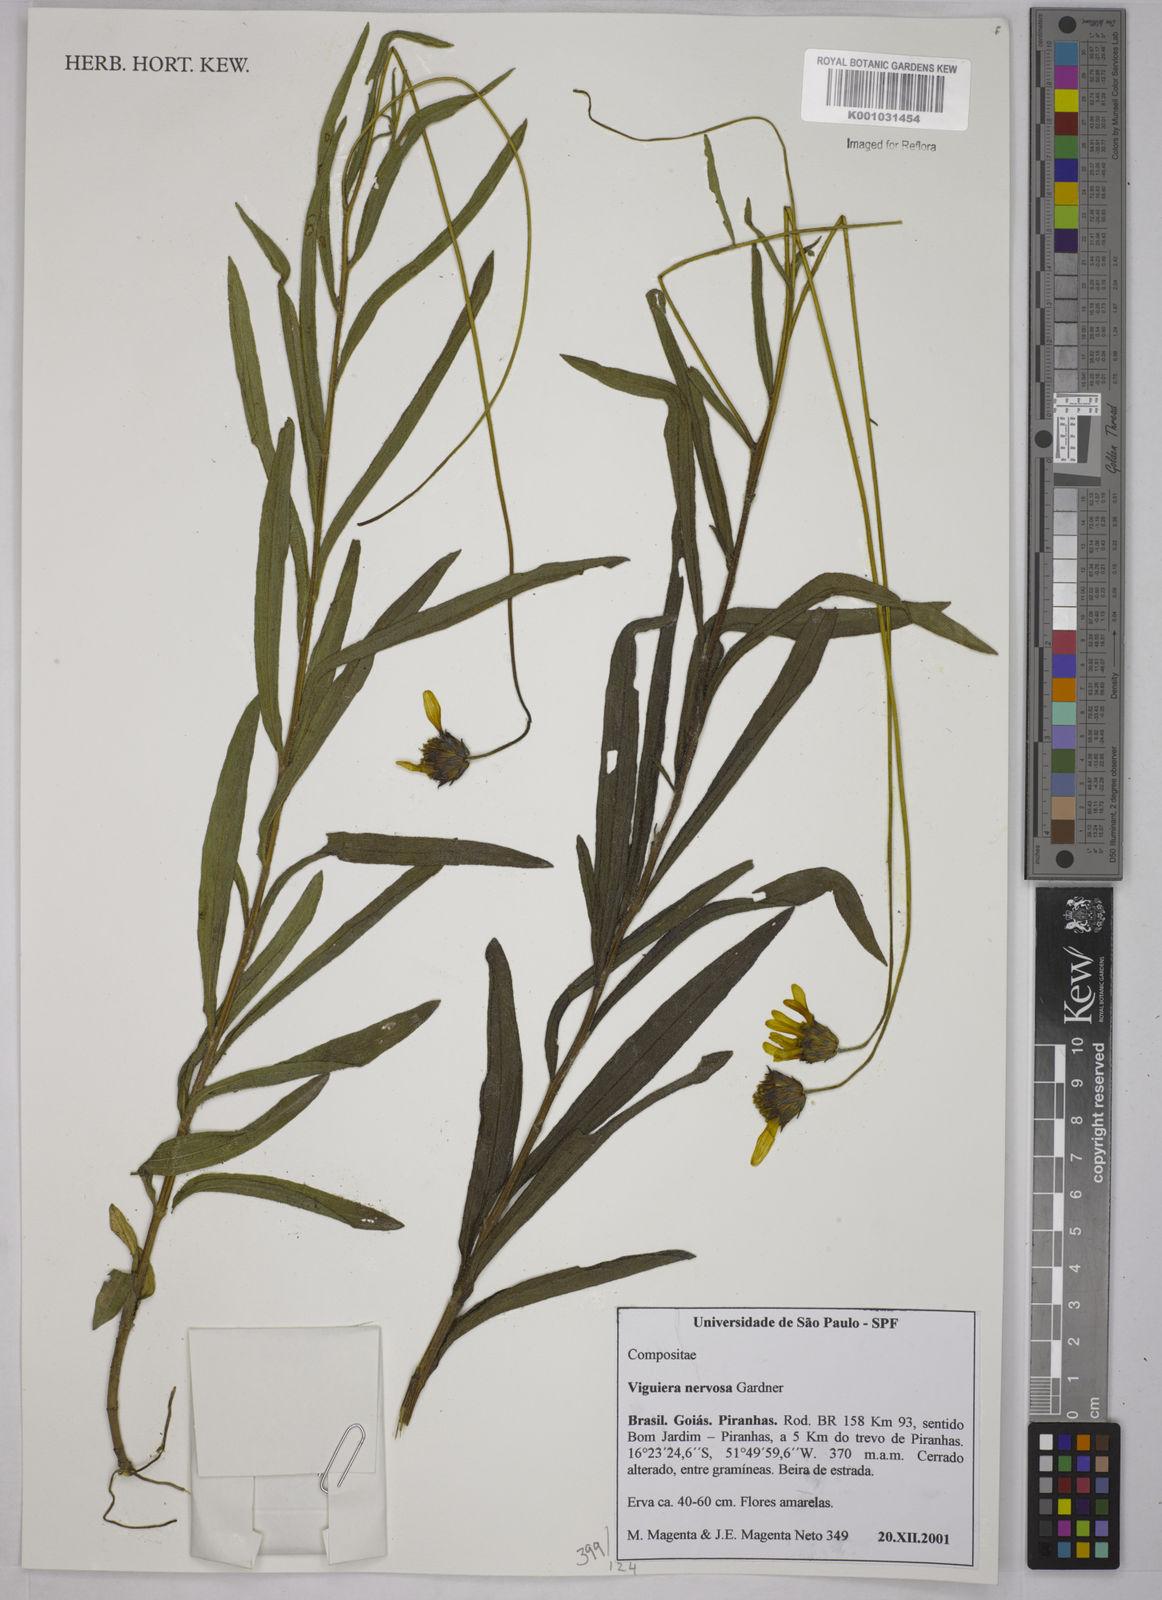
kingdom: Plantae
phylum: Tracheophyta
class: Magnoliopsida
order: Asterales
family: Asteraceae
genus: Aldama
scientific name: Aldama oblongifolia
